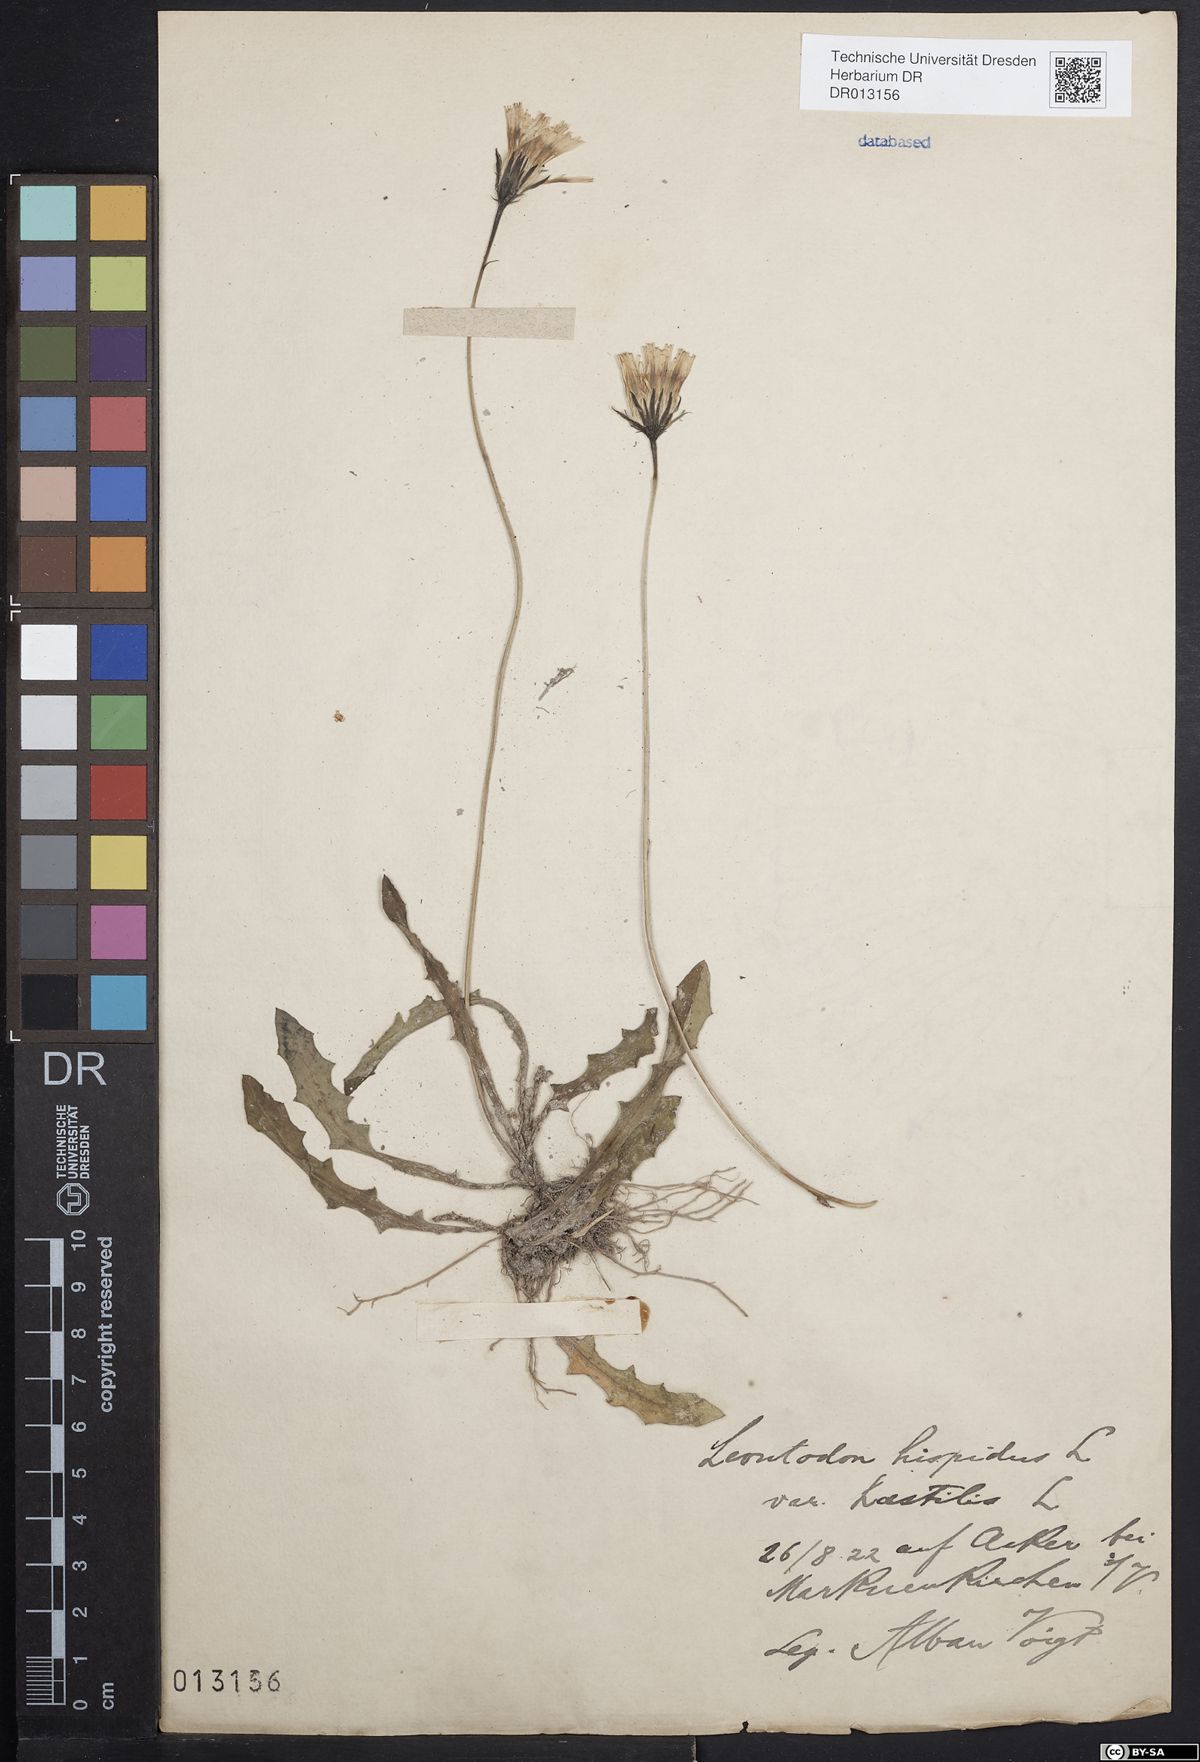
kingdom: Plantae
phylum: Tracheophyta
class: Magnoliopsida
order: Asterales
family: Asteraceae
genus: Leontodon
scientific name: Leontodon hispidus
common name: Rough hawkbit
